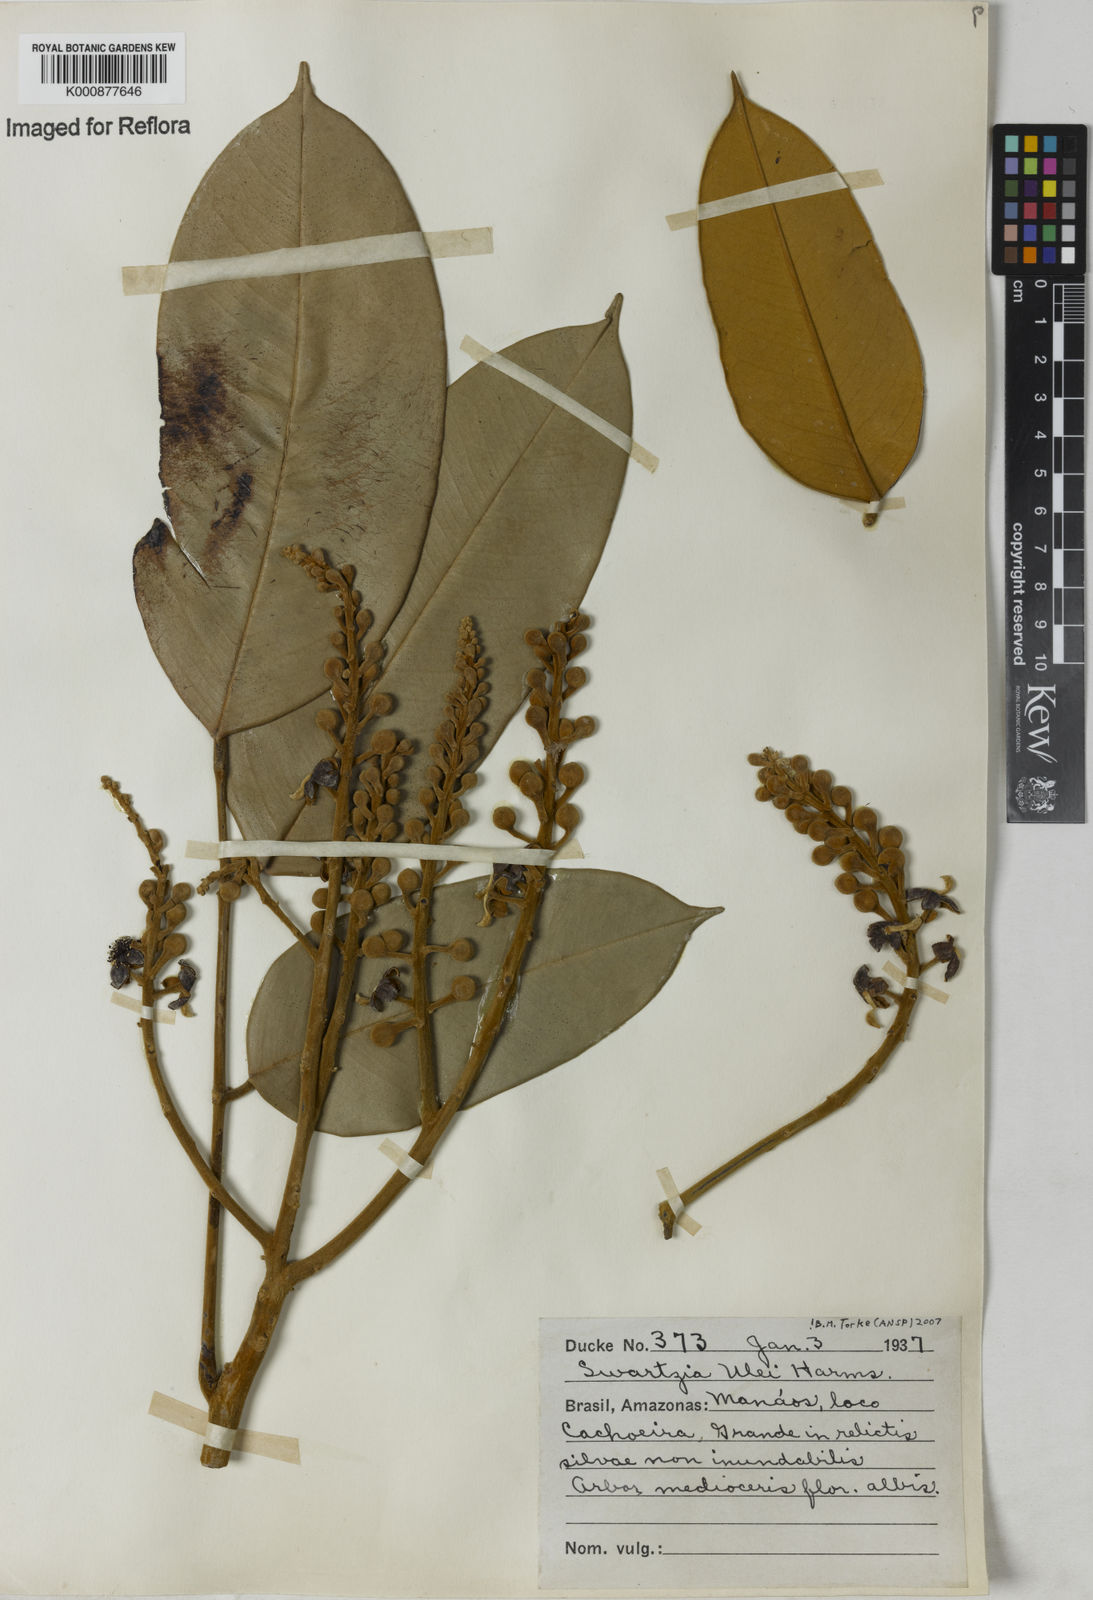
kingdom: Plantae
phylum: Tracheophyta
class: Magnoliopsida
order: Fabales
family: Fabaceae
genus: Swartzia
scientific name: Swartzia ulei
